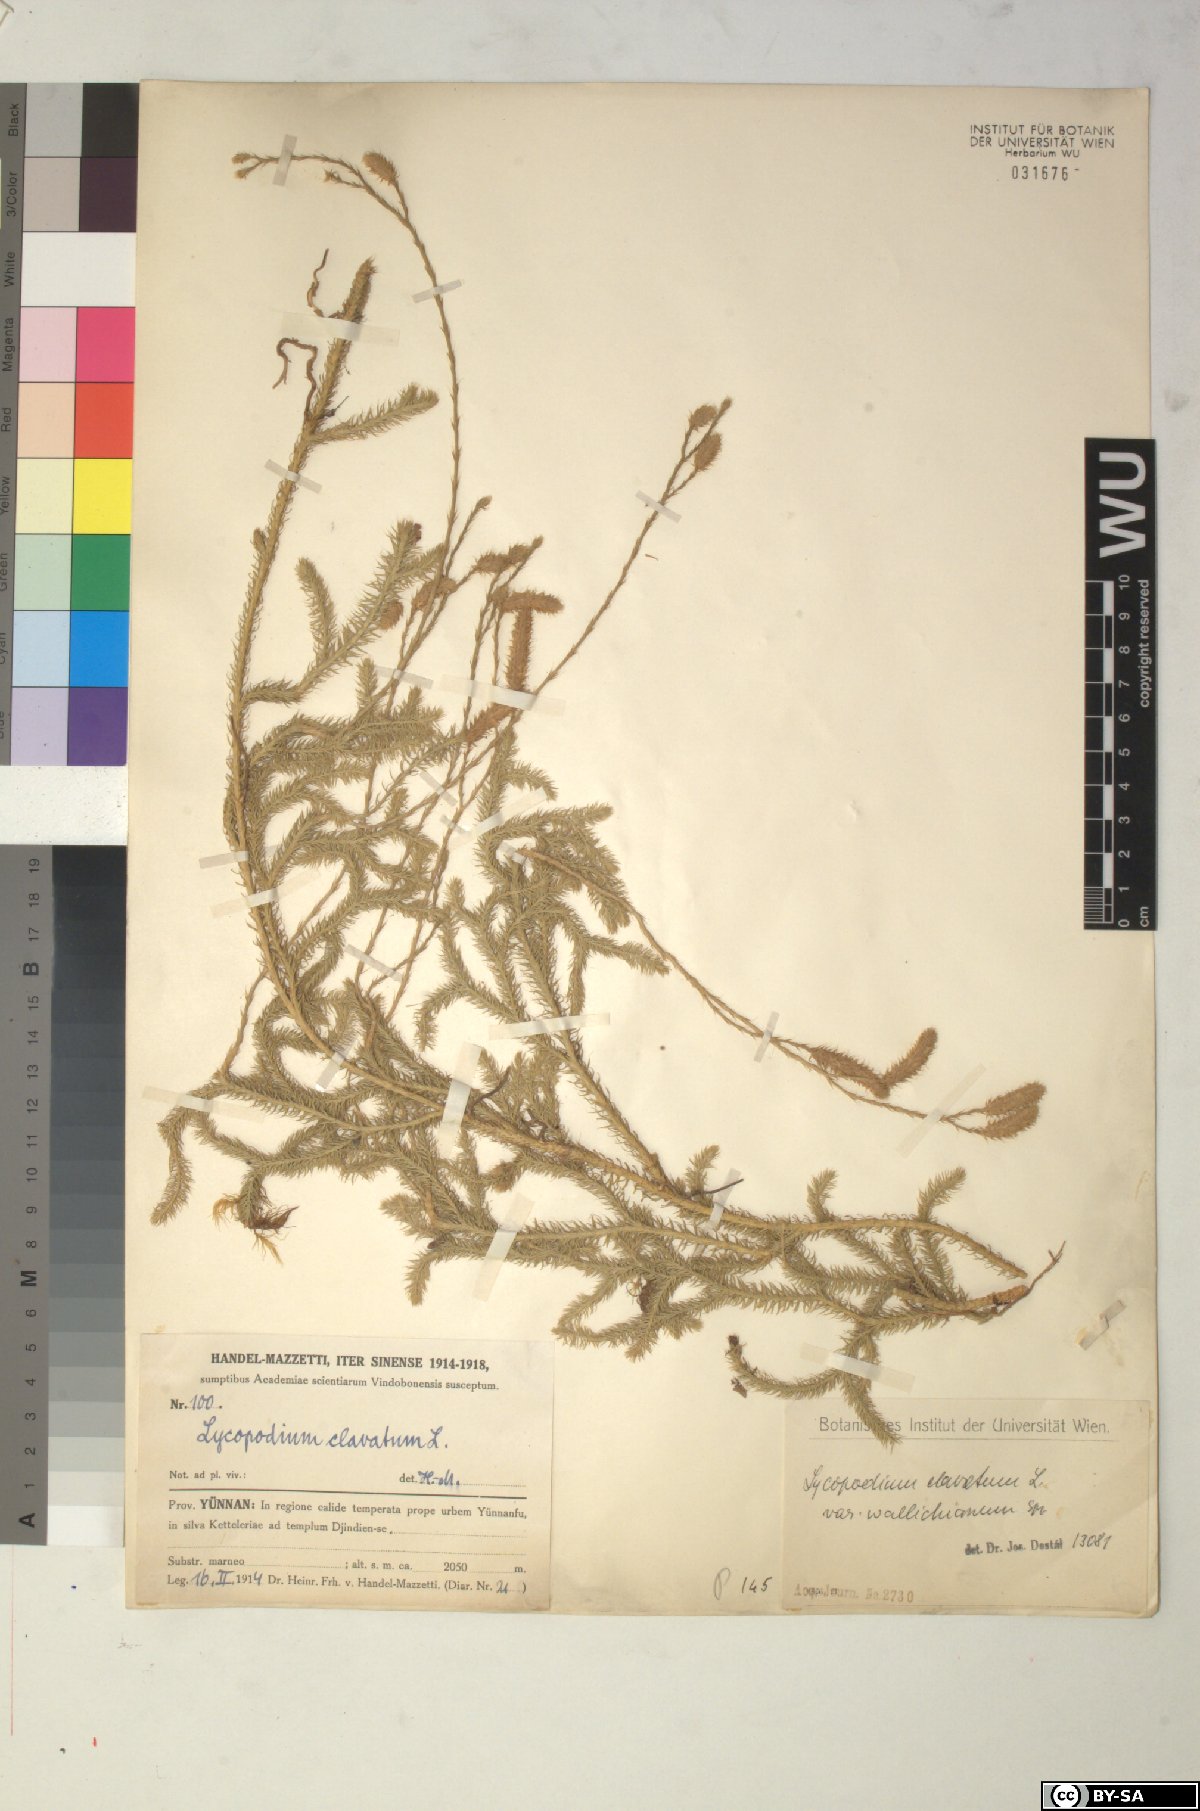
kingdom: Plantae
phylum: Tracheophyta
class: Lycopodiopsida
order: Lycopodiales
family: Lycopodiaceae
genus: Lycopodium
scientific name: Lycopodium japonicum
